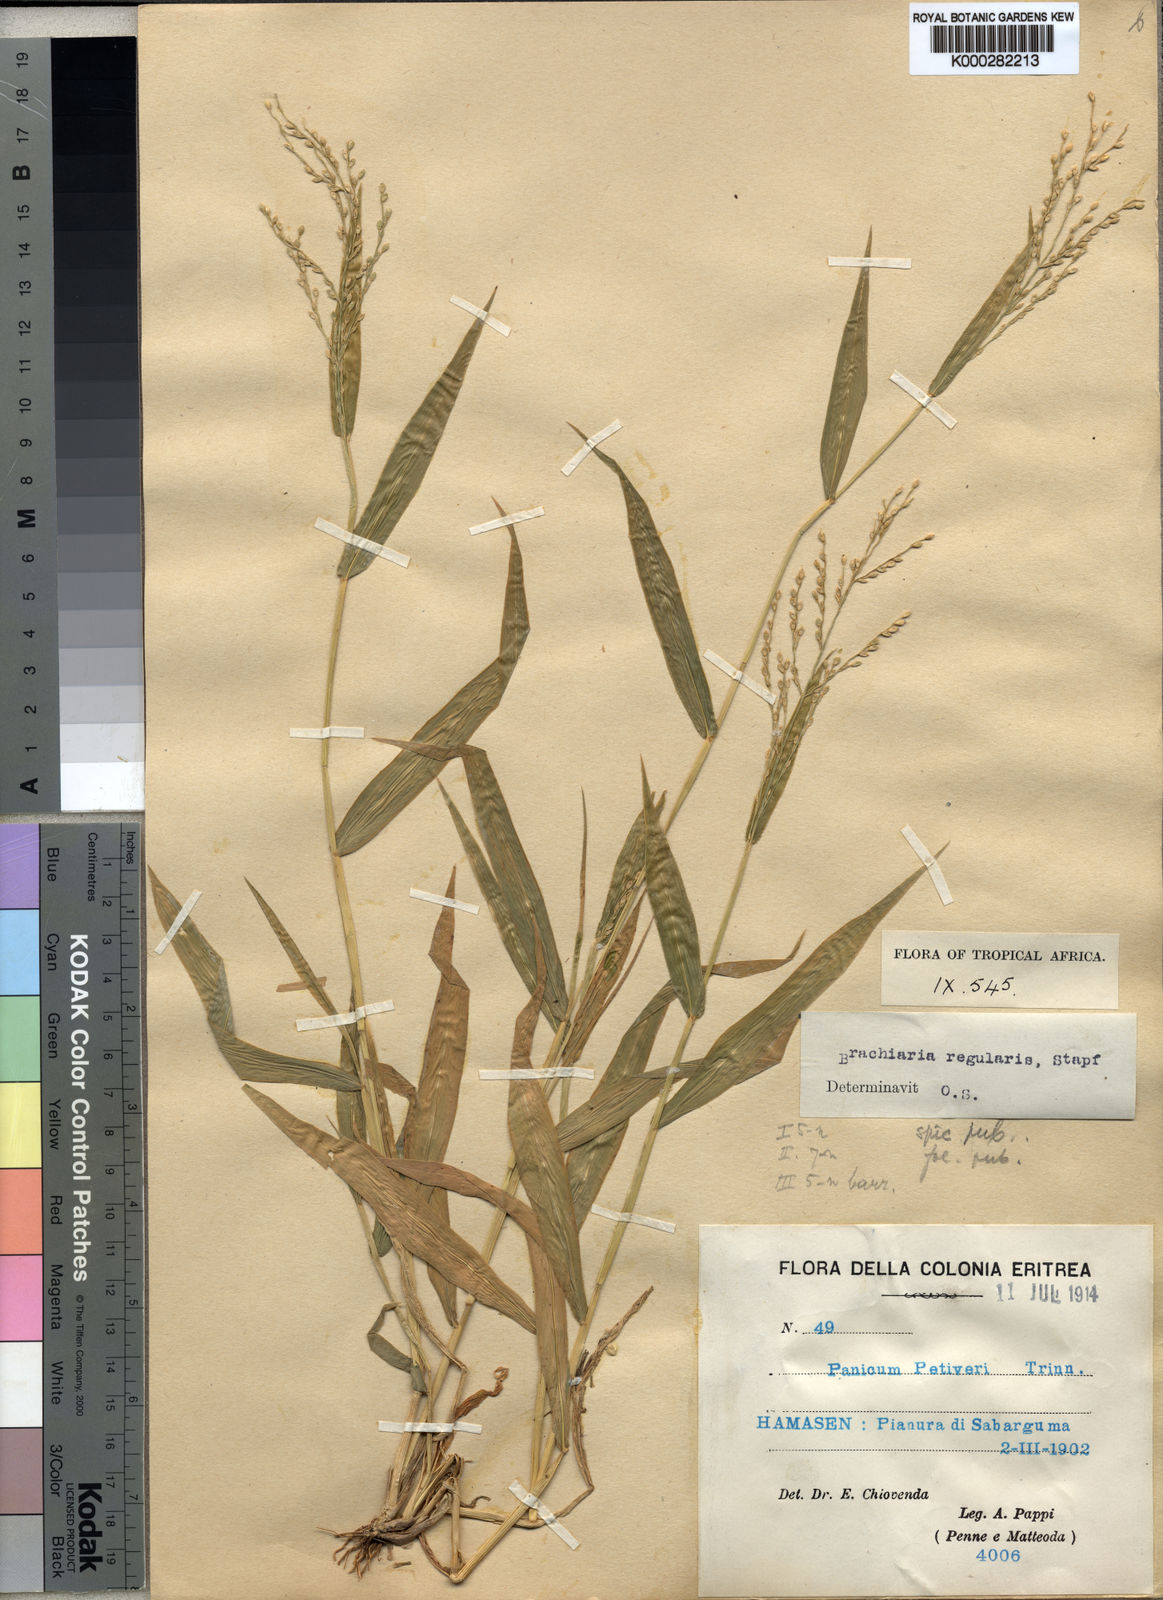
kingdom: Plantae
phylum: Tracheophyta
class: Liliopsida
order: Poales
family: Poaceae
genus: Urochloa
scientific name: Urochloa ramosa
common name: Browntop millet
